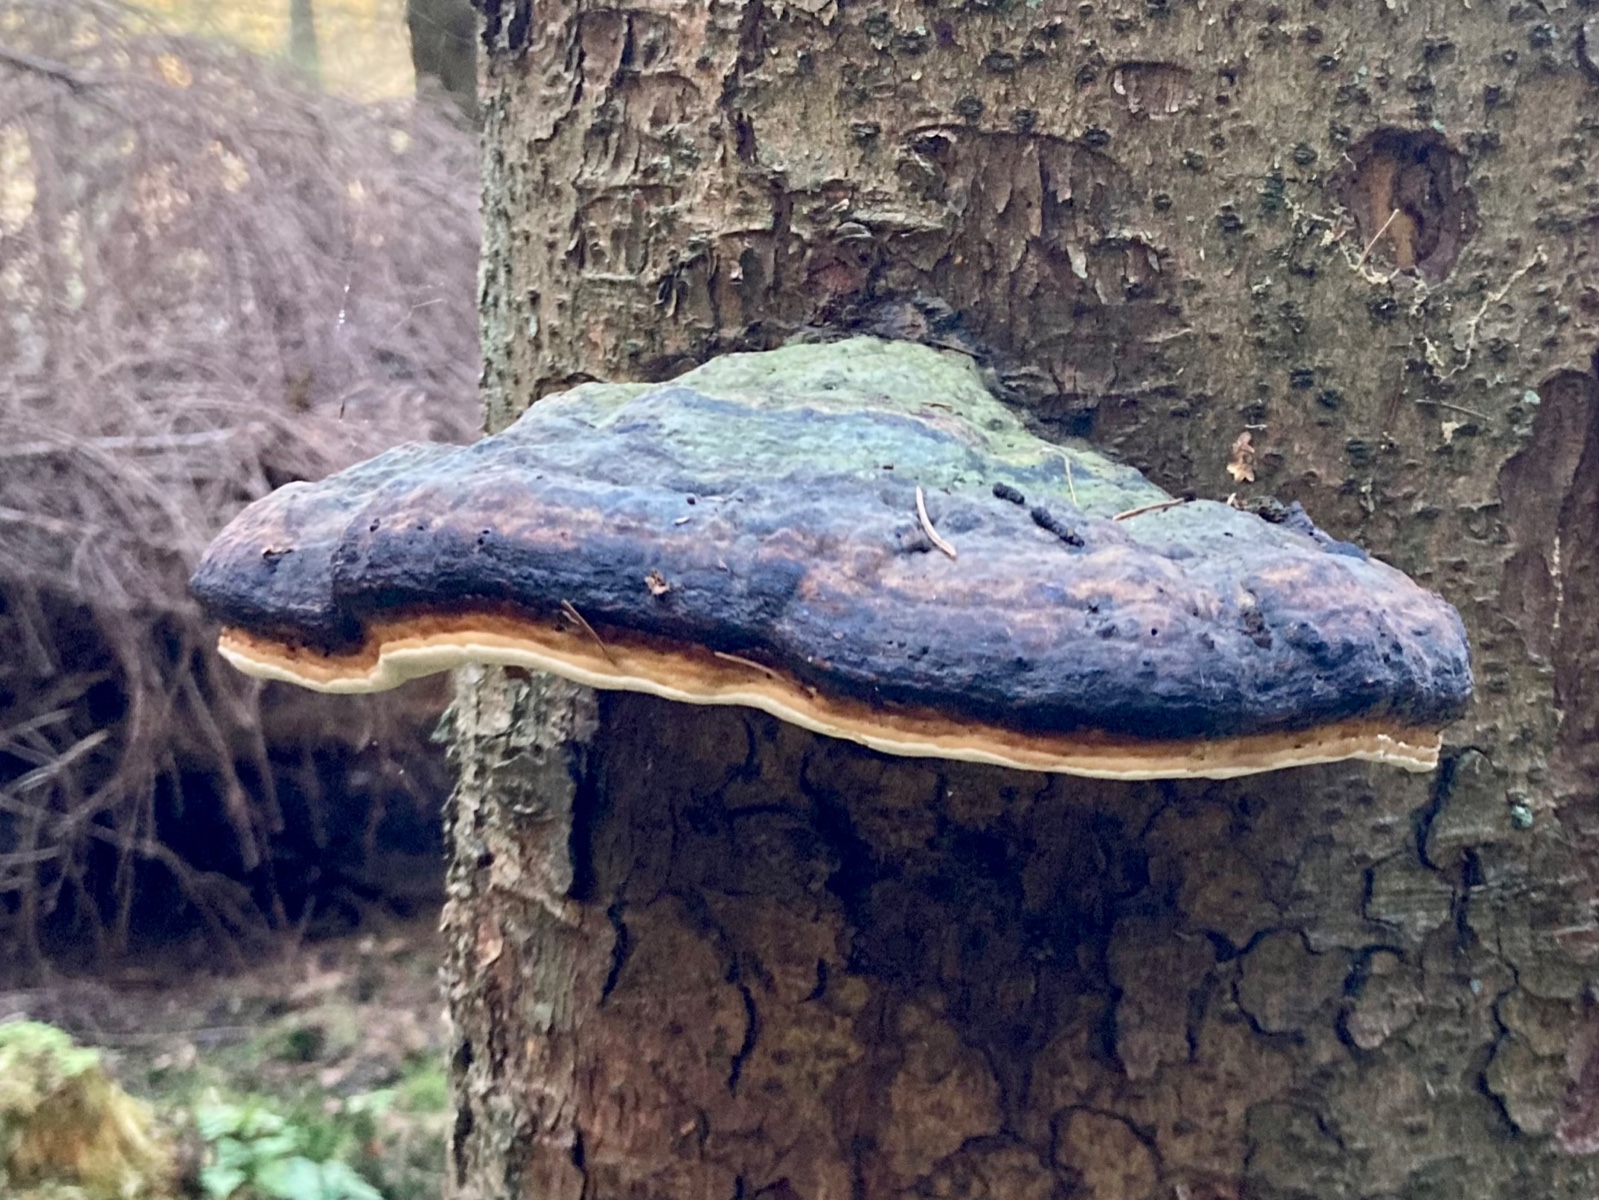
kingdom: Fungi
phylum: Basidiomycota
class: Agaricomycetes
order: Polyporales
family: Fomitopsidaceae
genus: Fomitopsis
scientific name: Fomitopsis pinicola
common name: randbæltet hovporesvamp
